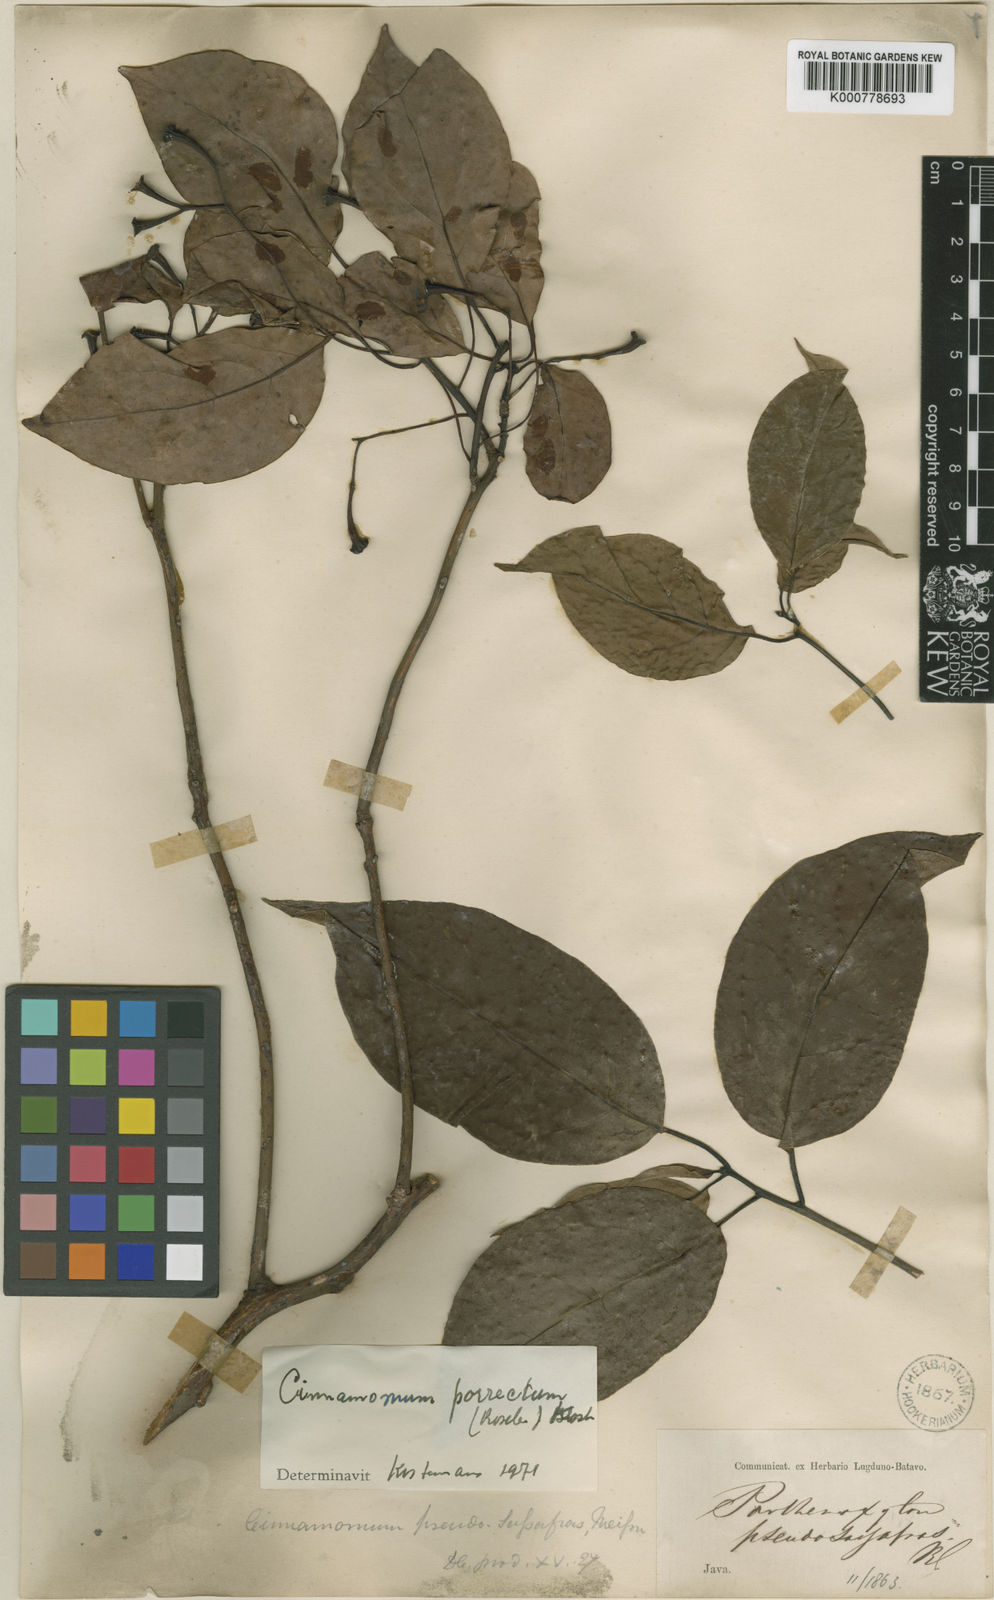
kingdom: Plantae
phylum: Tracheophyta
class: Magnoliopsida
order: Laurales
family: Lauraceae
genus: Cinnamomum
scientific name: Cinnamomum
